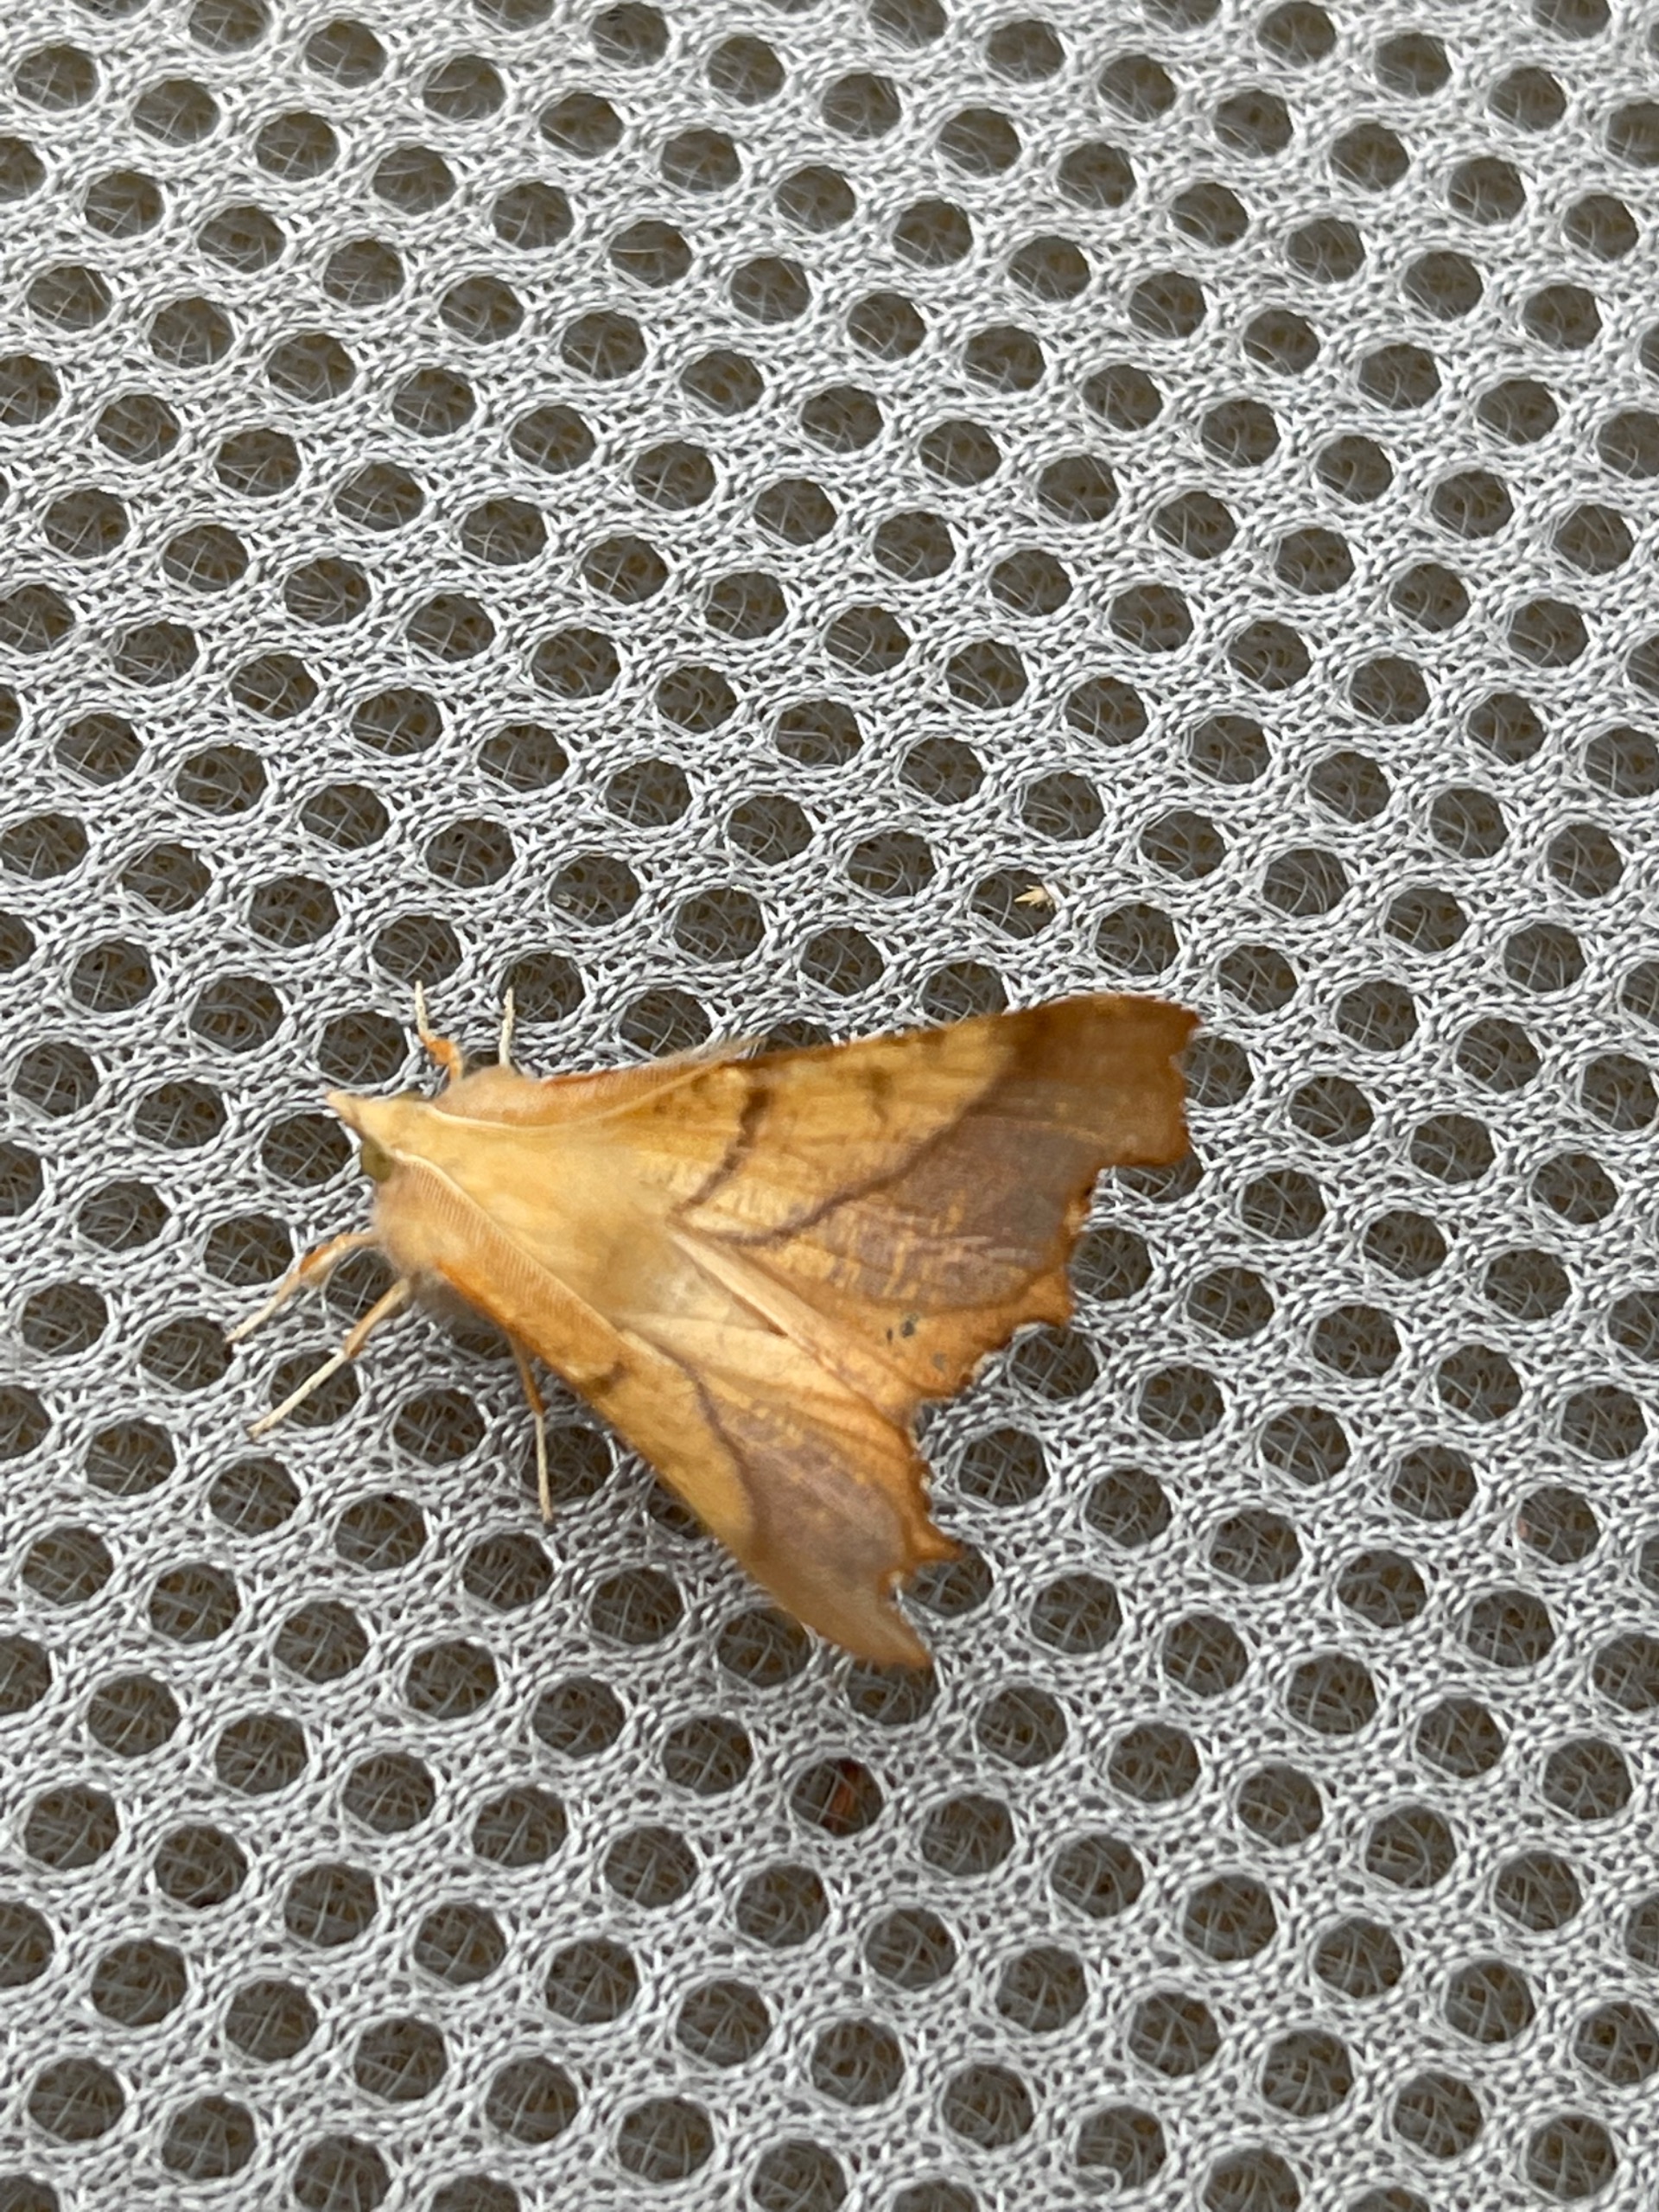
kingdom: Animalia
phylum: Arthropoda
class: Insecta
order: Lepidoptera
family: Geometridae
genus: Ennomos
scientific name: Ennomos fuscantaria
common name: Asketandmåler
